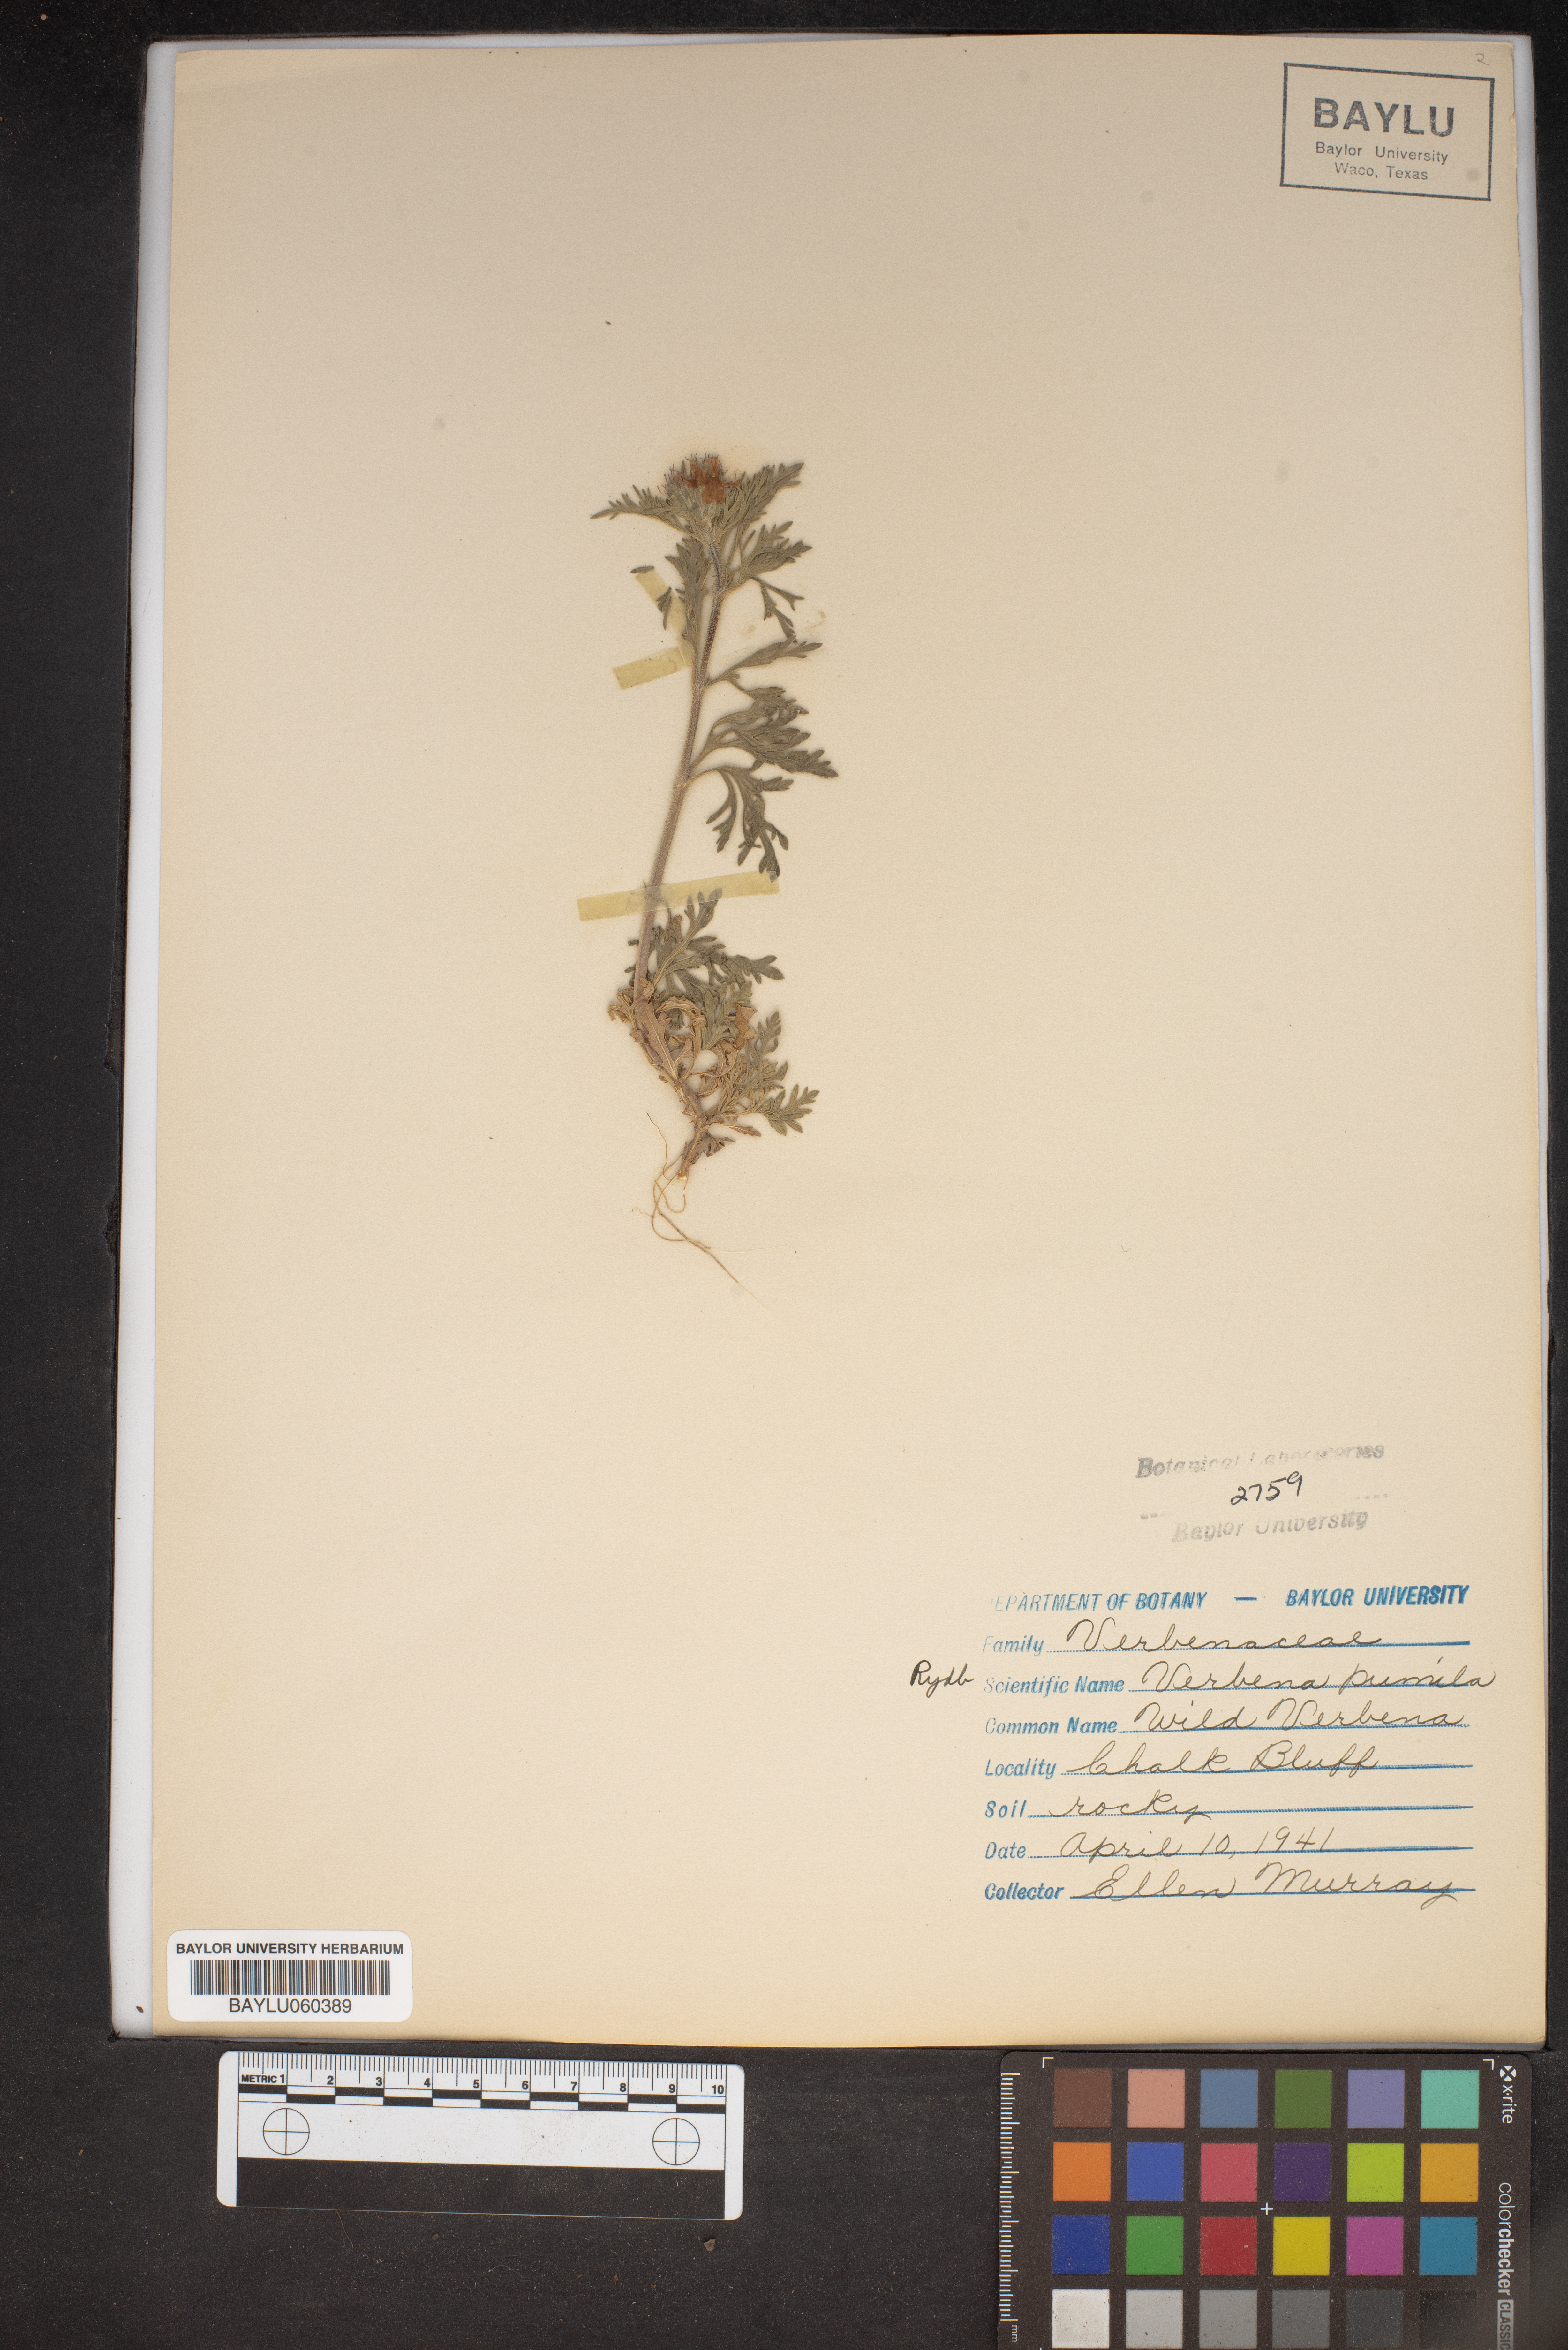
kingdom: Plantae
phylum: Tracheophyta
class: Magnoliopsida
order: Lamiales
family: Verbenaceae
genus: Verbena
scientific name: Verbena pumila
